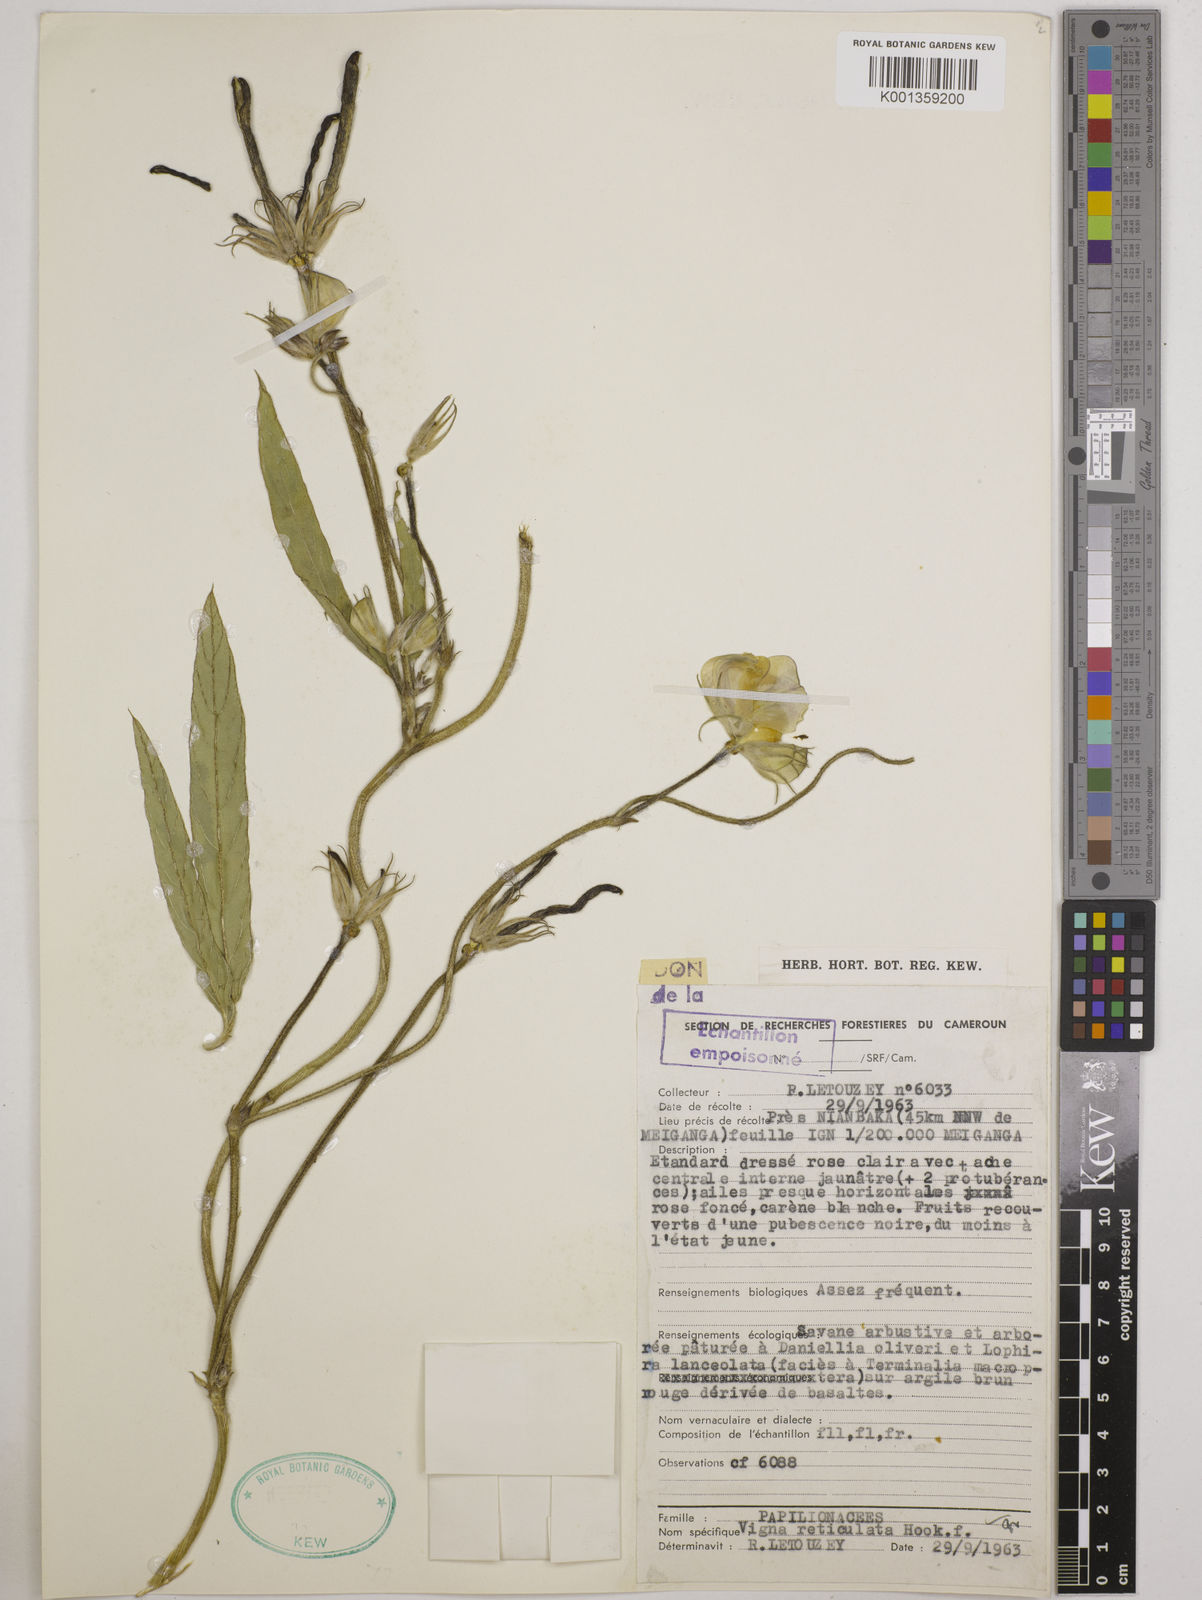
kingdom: Plantae
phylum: Tracheophyta
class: Magnoliopsida
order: Fabales
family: Fabaceae
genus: Vigna
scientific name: Vigna reticulata
